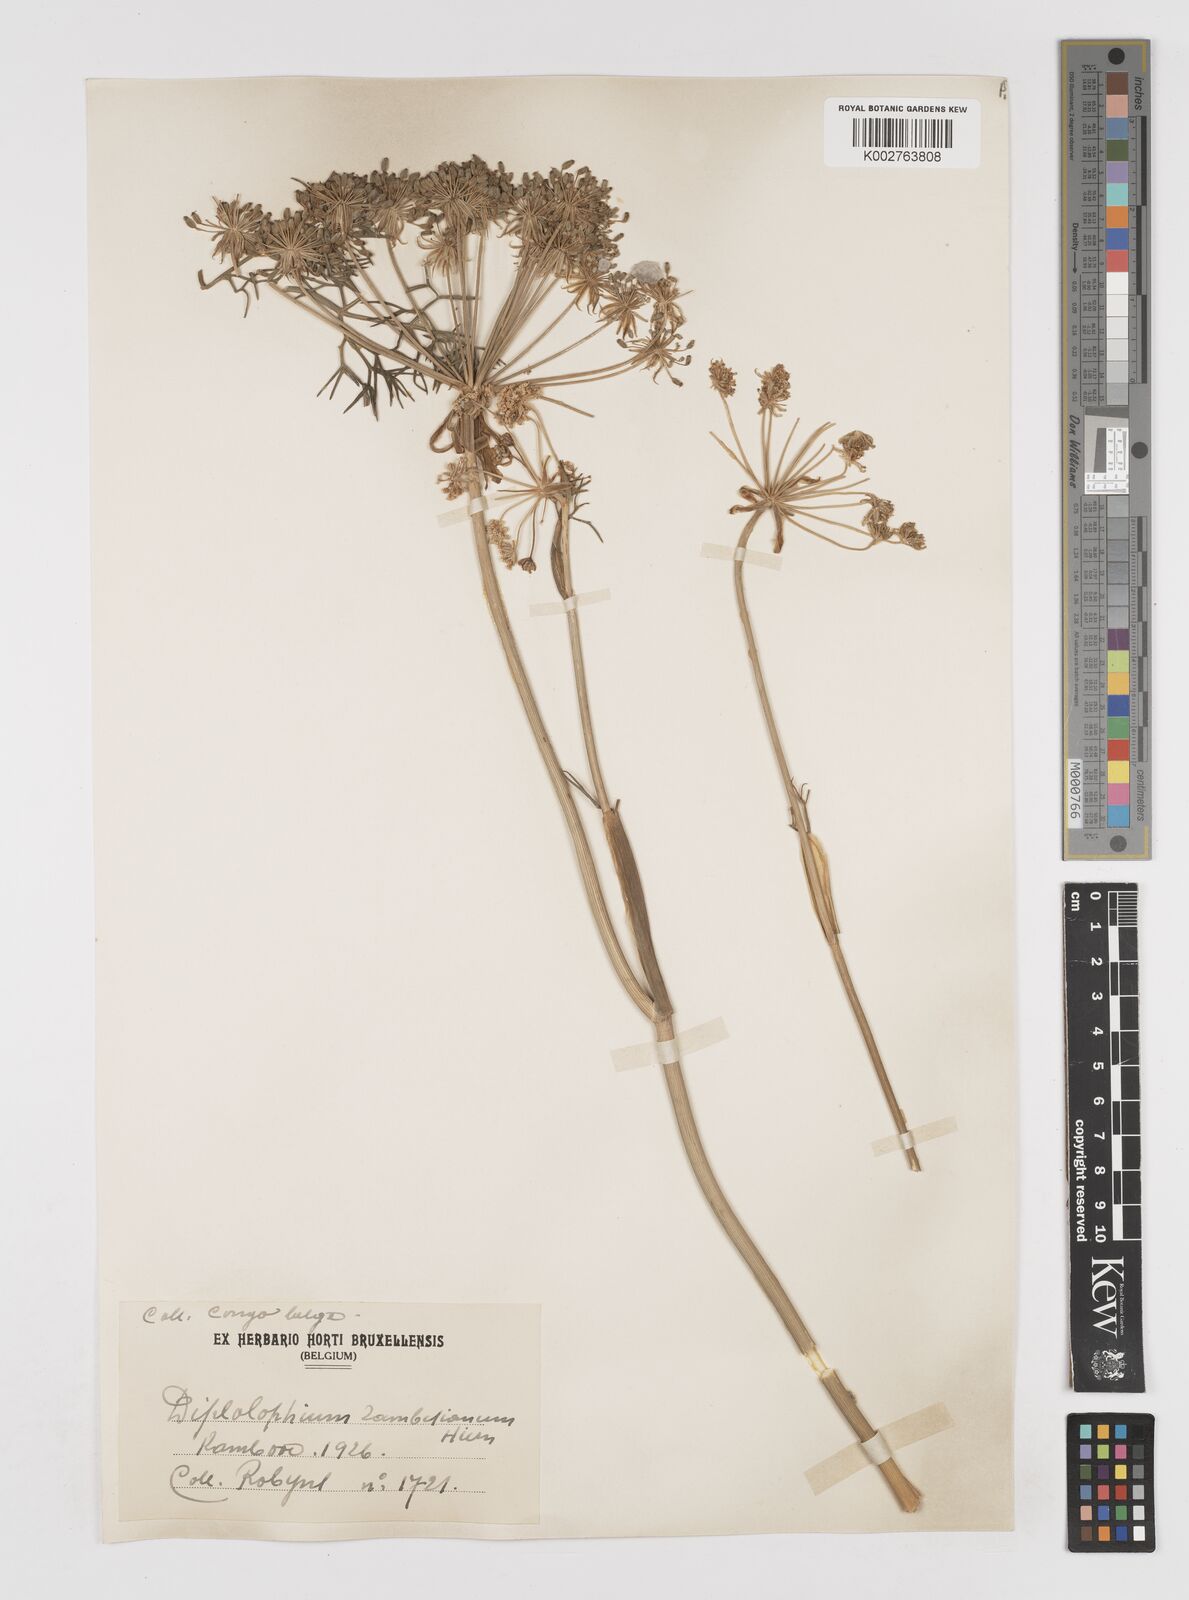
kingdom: Plantae
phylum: Tracheophyta
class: Magnoliopsida
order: Apiales
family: Apiaceae
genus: Diplolophium
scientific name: Diplolophium zambesianum
